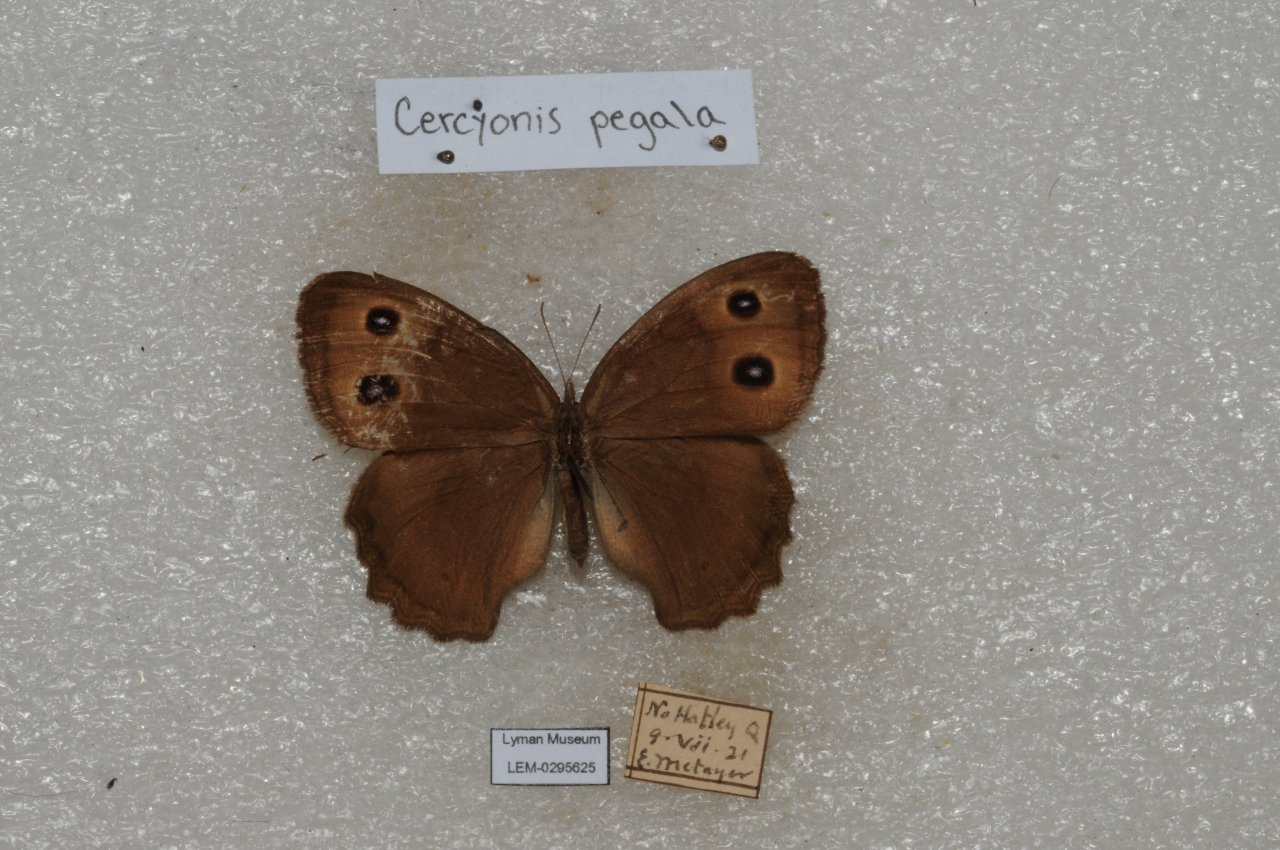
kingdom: Animalia
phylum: Arthropoda
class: Insecta
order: Lepidoptera
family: Nymphalidae
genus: Cercyonis
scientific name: Cercyonis pegala
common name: Common Wood-Nymph
